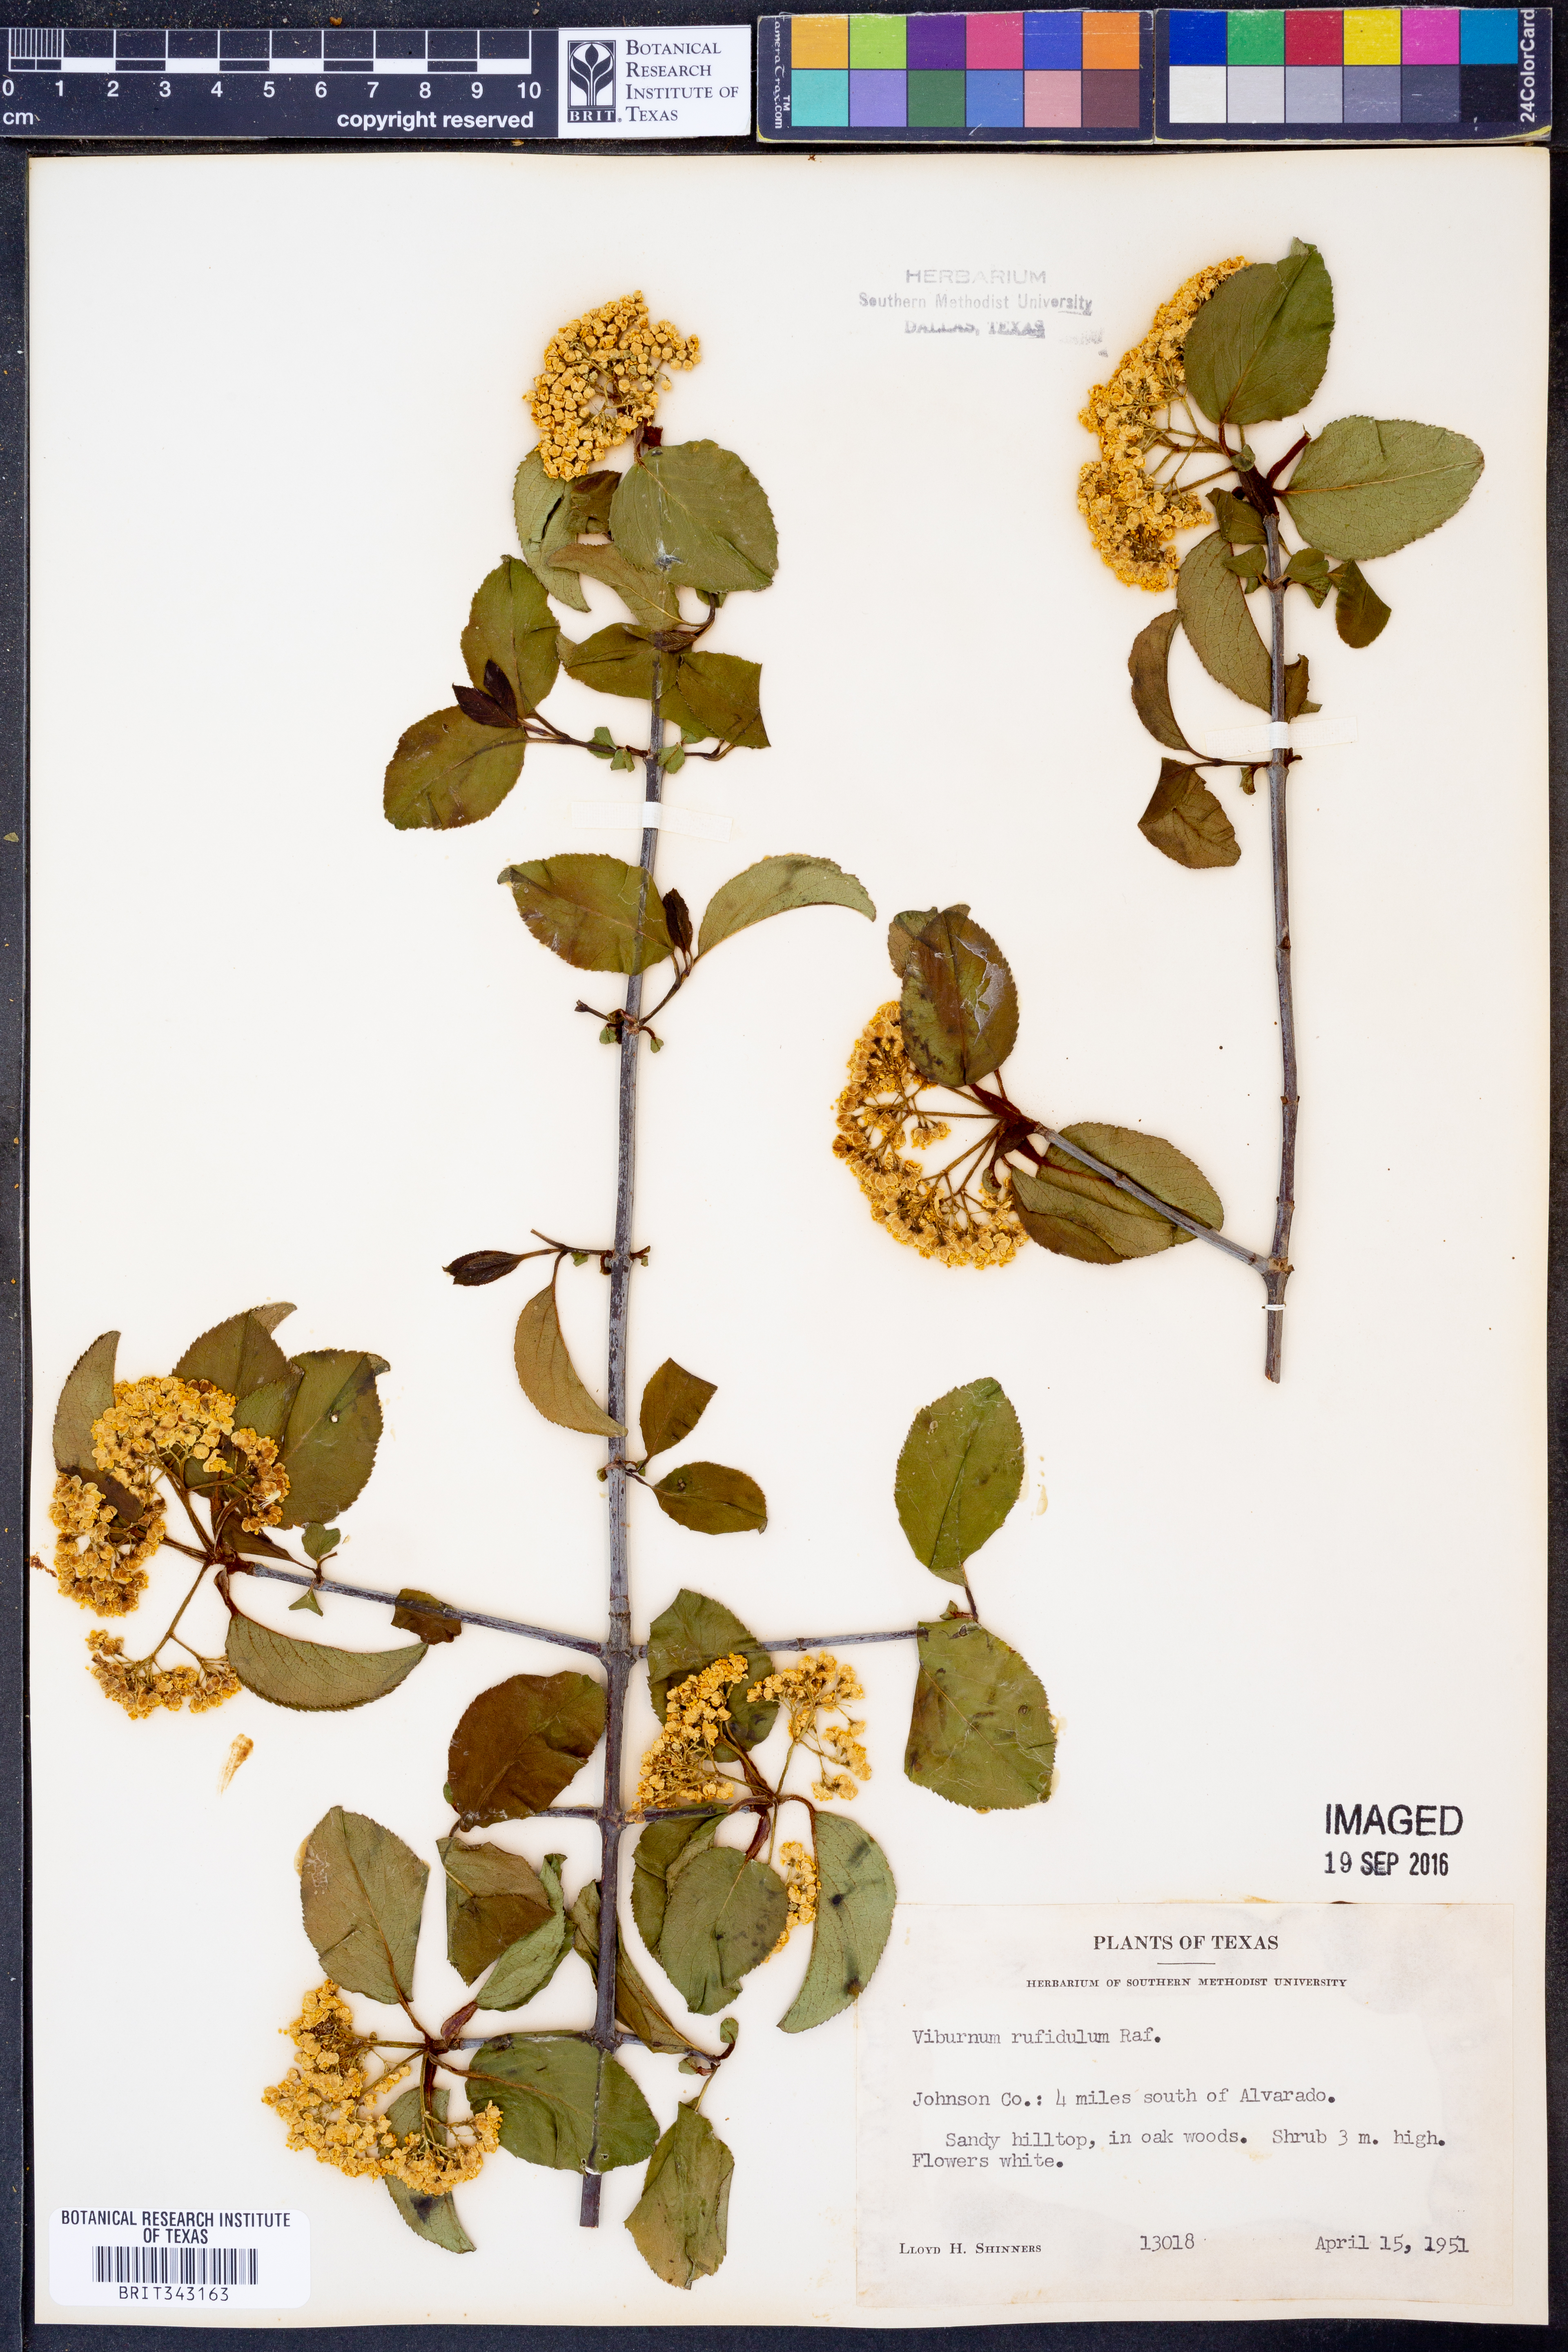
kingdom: Plantae
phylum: Tracheophyta
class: Magnoliopsida
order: Dipsacales
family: Viburnaceae
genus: Viburnum
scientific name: Viburnum rufidulum
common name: Blue haw
